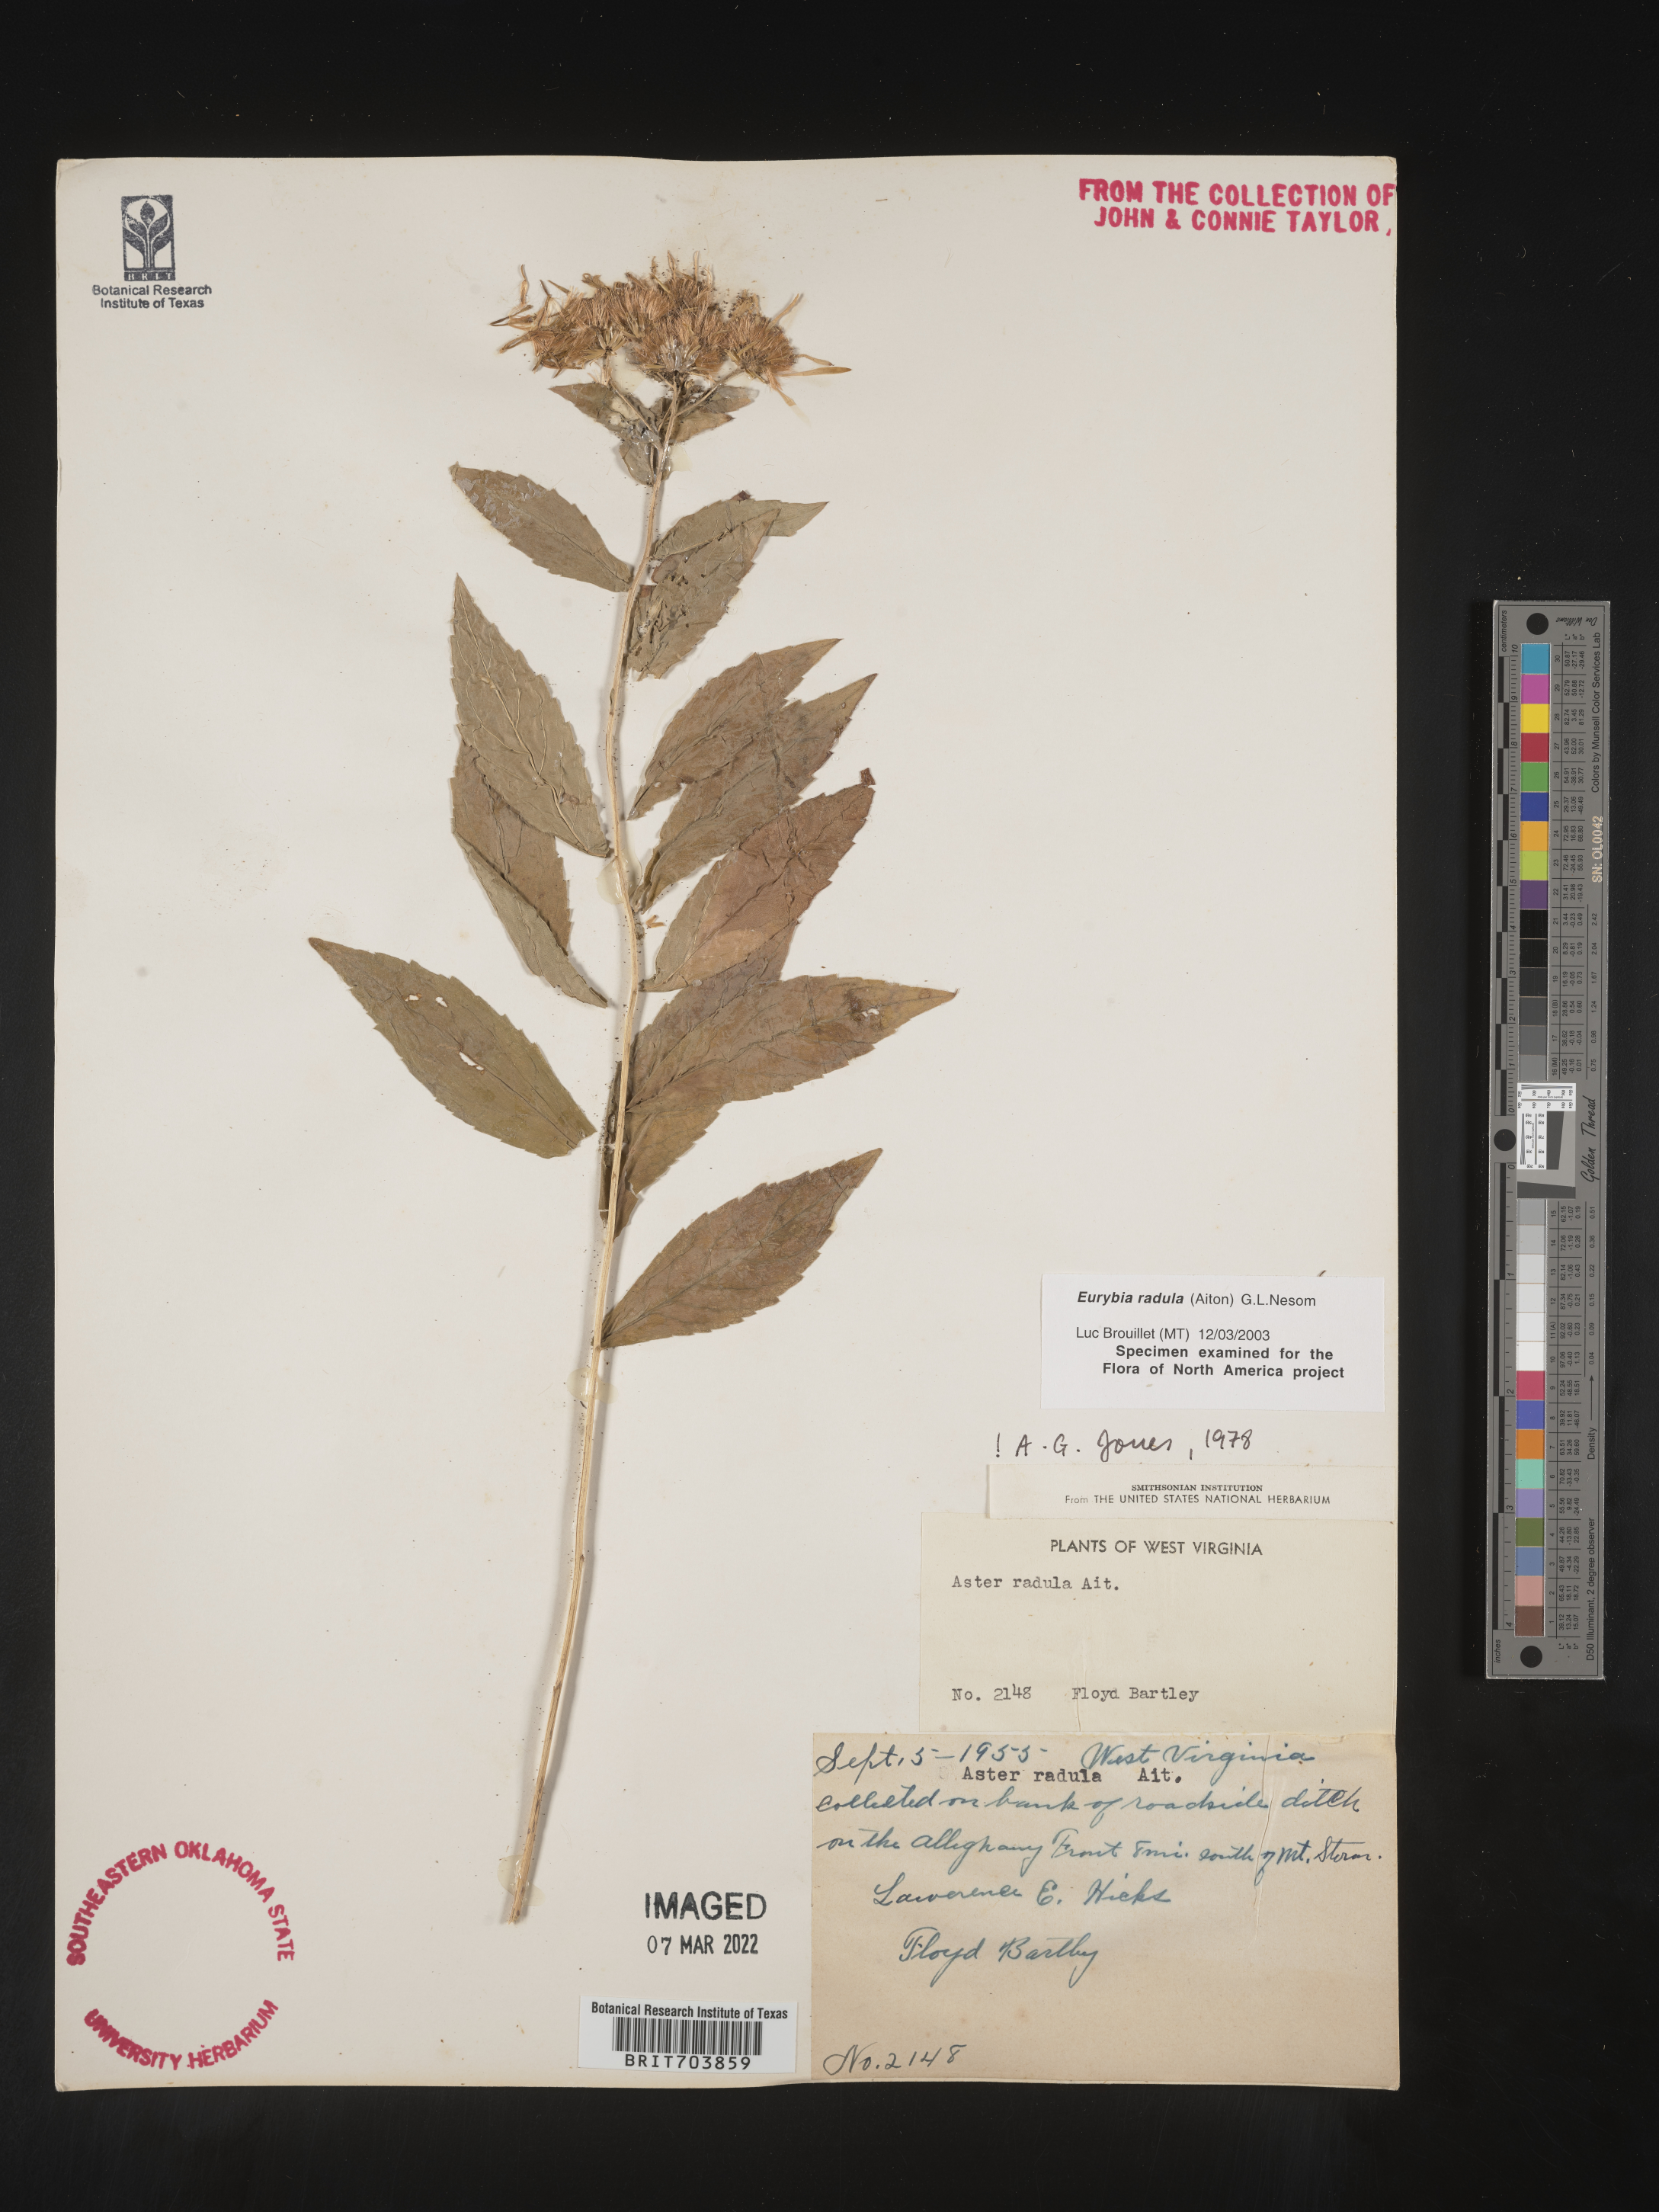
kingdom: Plantae
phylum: Tracheophyta
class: Magnoliopsida
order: Asterales
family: Asteraceae
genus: Eurybia
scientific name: Eurybia radula
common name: Low rough aster
